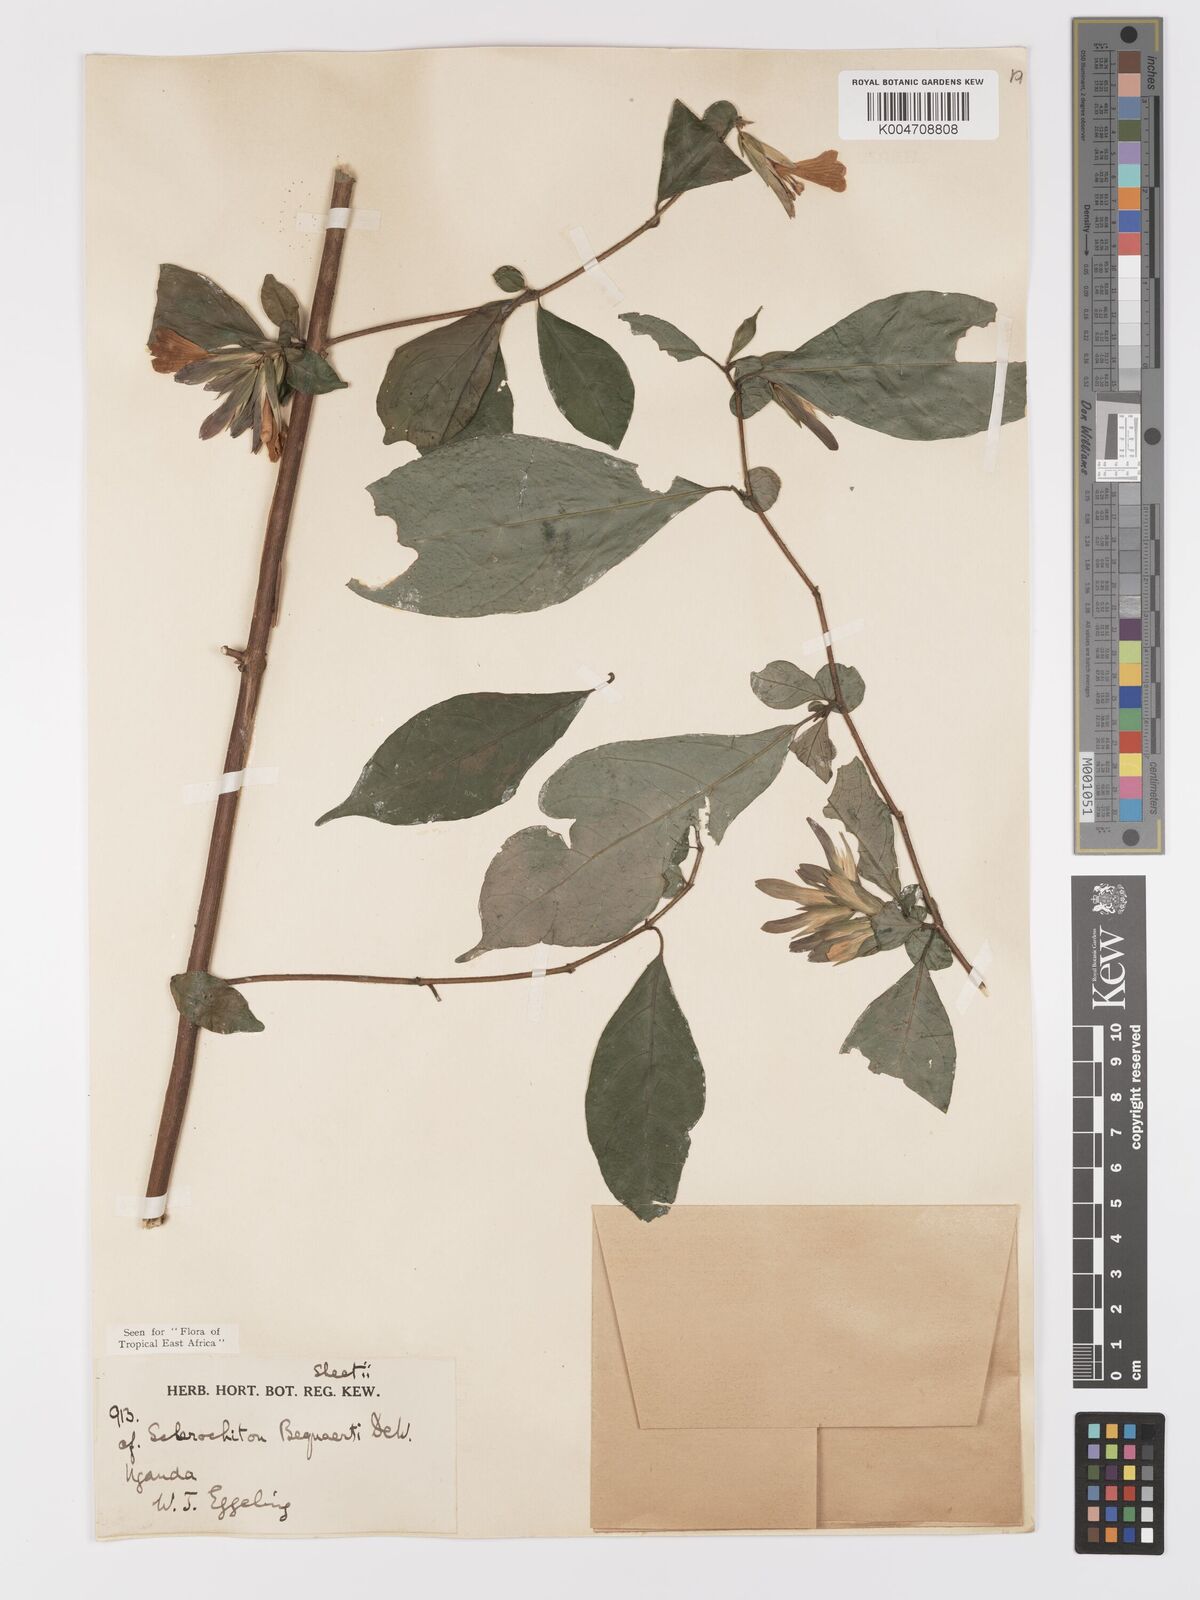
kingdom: Plantae
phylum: Tracheophyta
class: Magnoliopsida
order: Lamiales
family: Acanthaceae
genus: Sclerochiton
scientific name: Sclerochiton bequaertii
